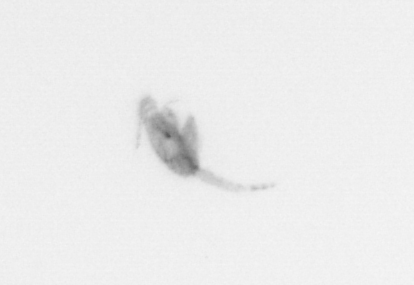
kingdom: Animalia
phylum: Arthropoda
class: Copepoda
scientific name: Copepoda
